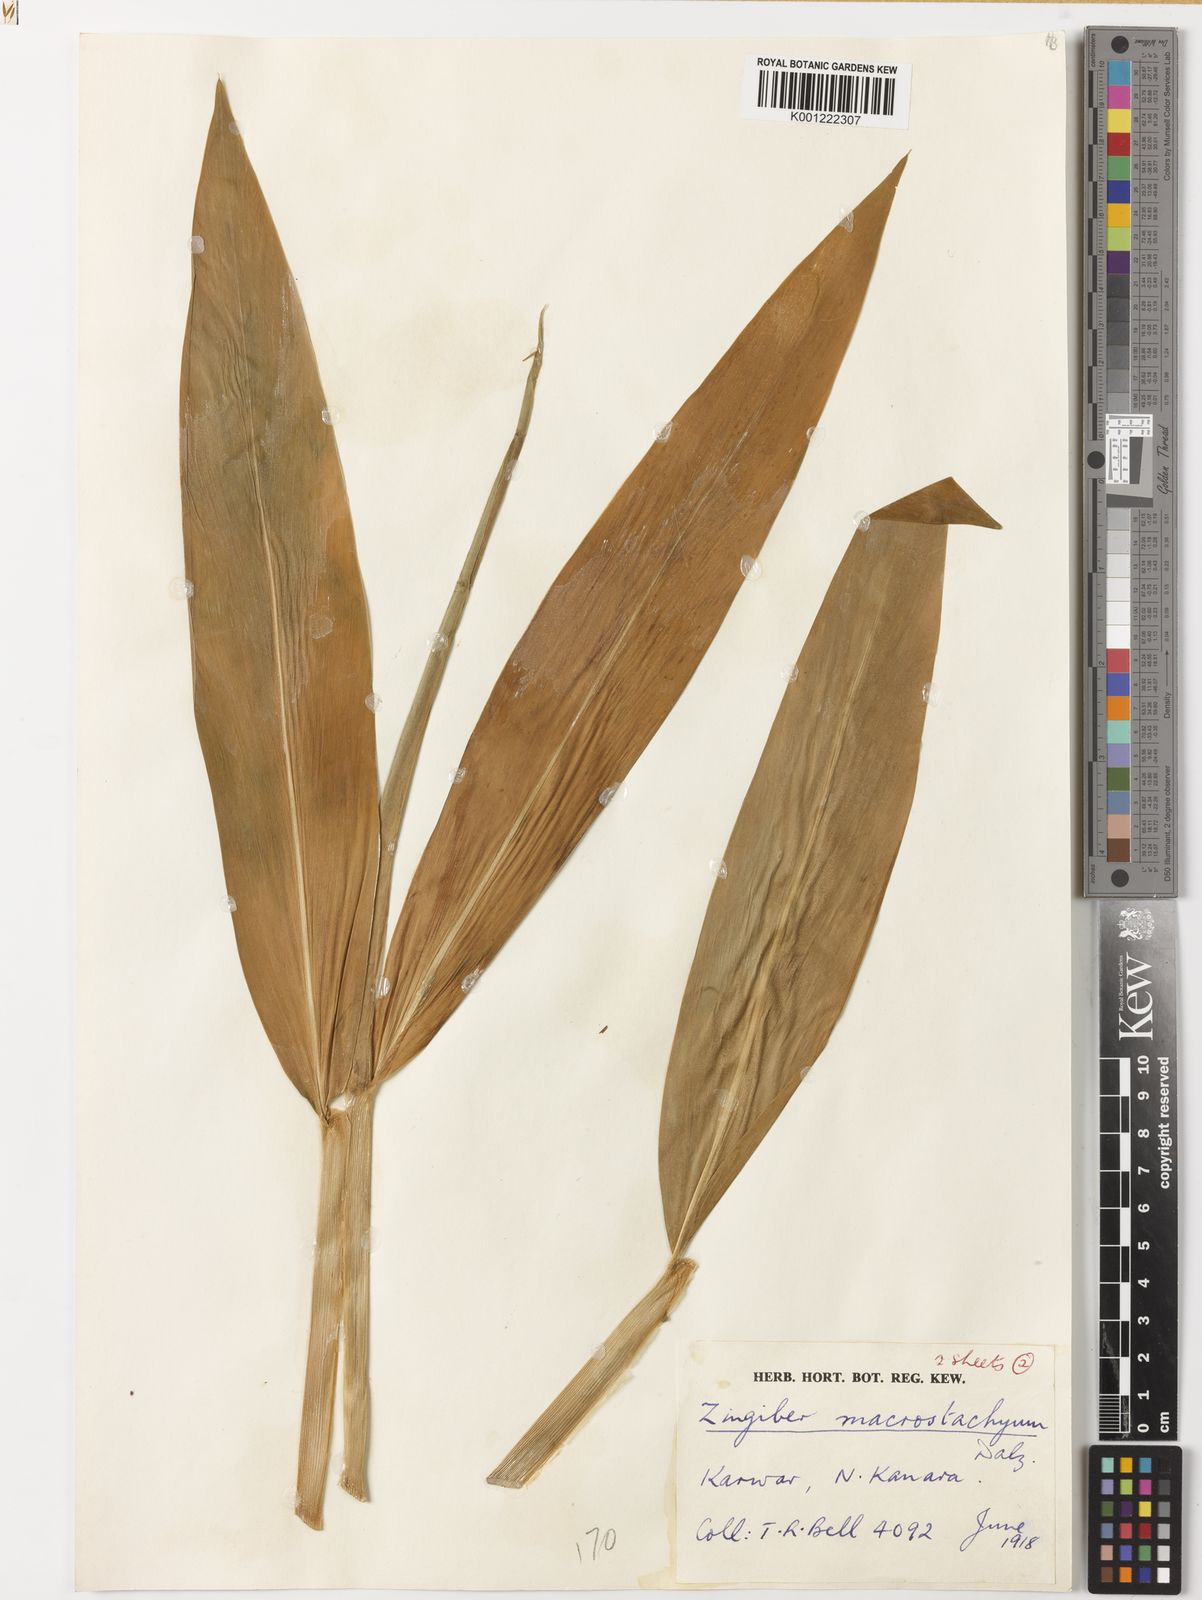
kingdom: Plantae
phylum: Tracheophyta
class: Liliopsida
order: Zingiberales
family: Zingiberaceae
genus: Zingiber
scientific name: Zingiber neesanum
